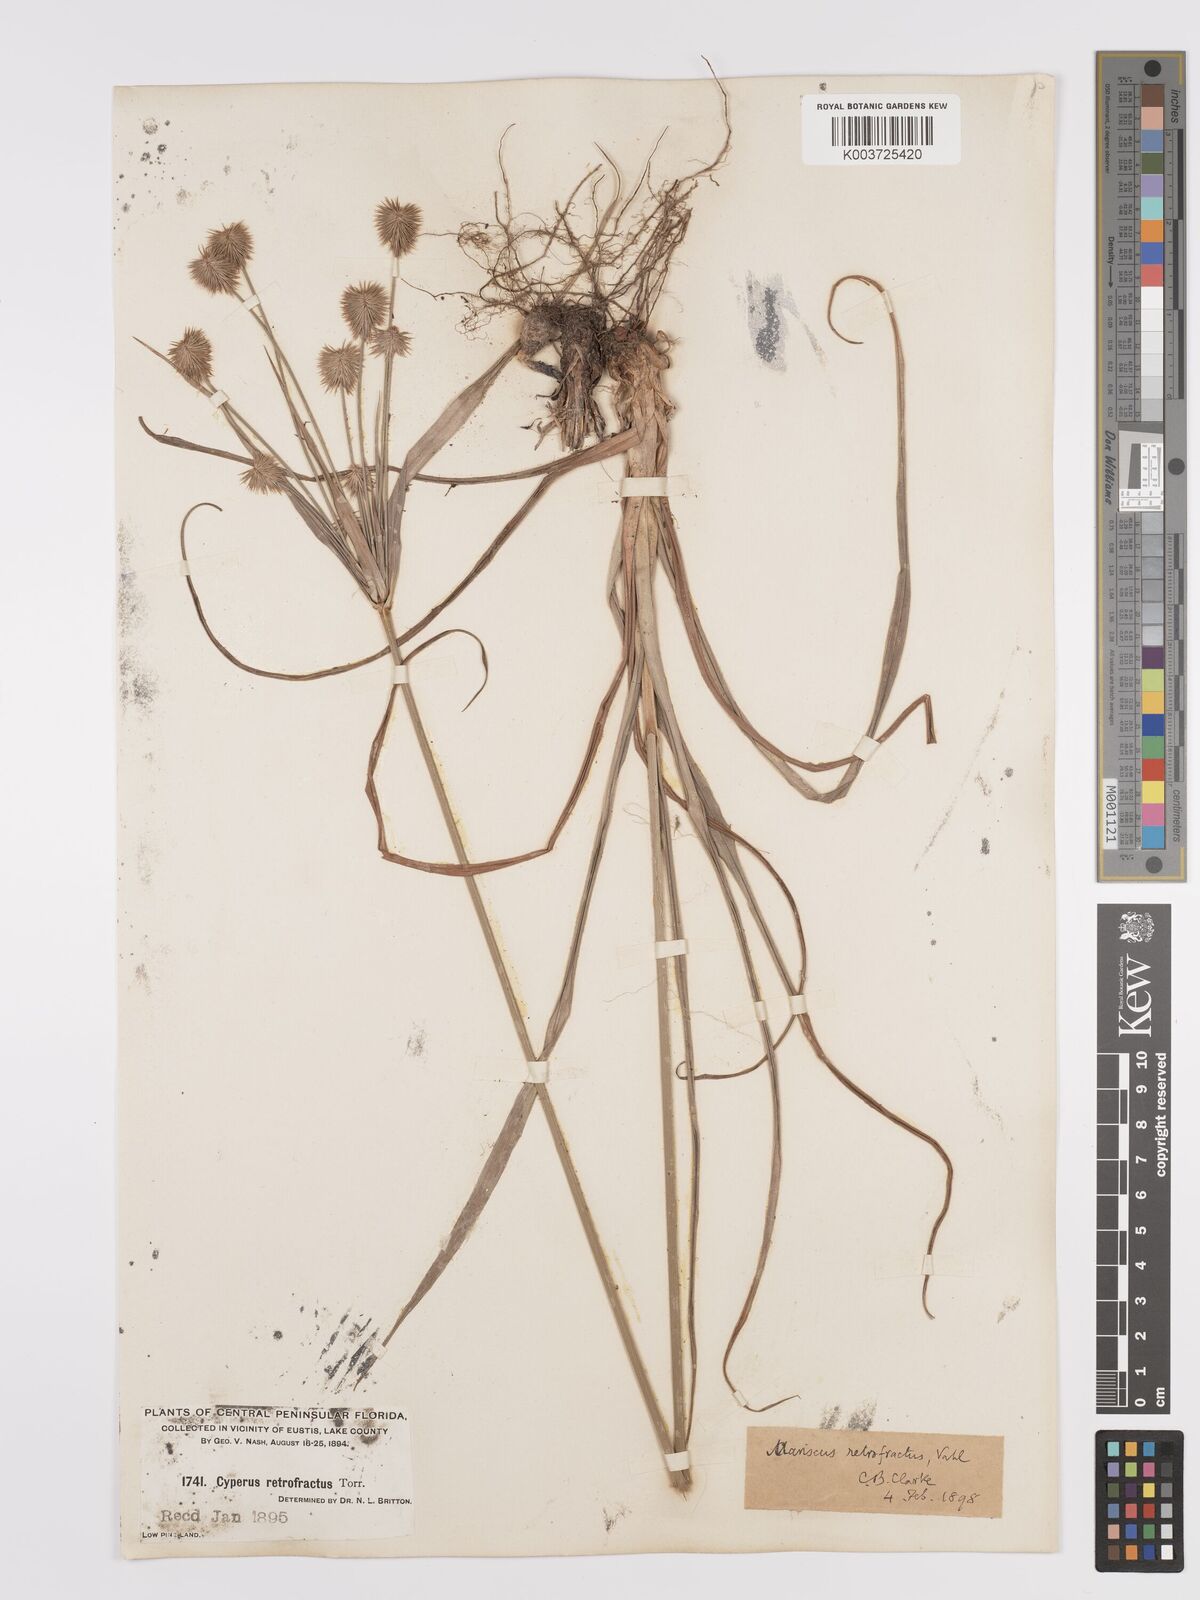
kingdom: Plantae
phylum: Tracheophyta
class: Liliopsida
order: Poales
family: Cyperaceae
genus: Cyperus
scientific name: Cyperus retrofractus
